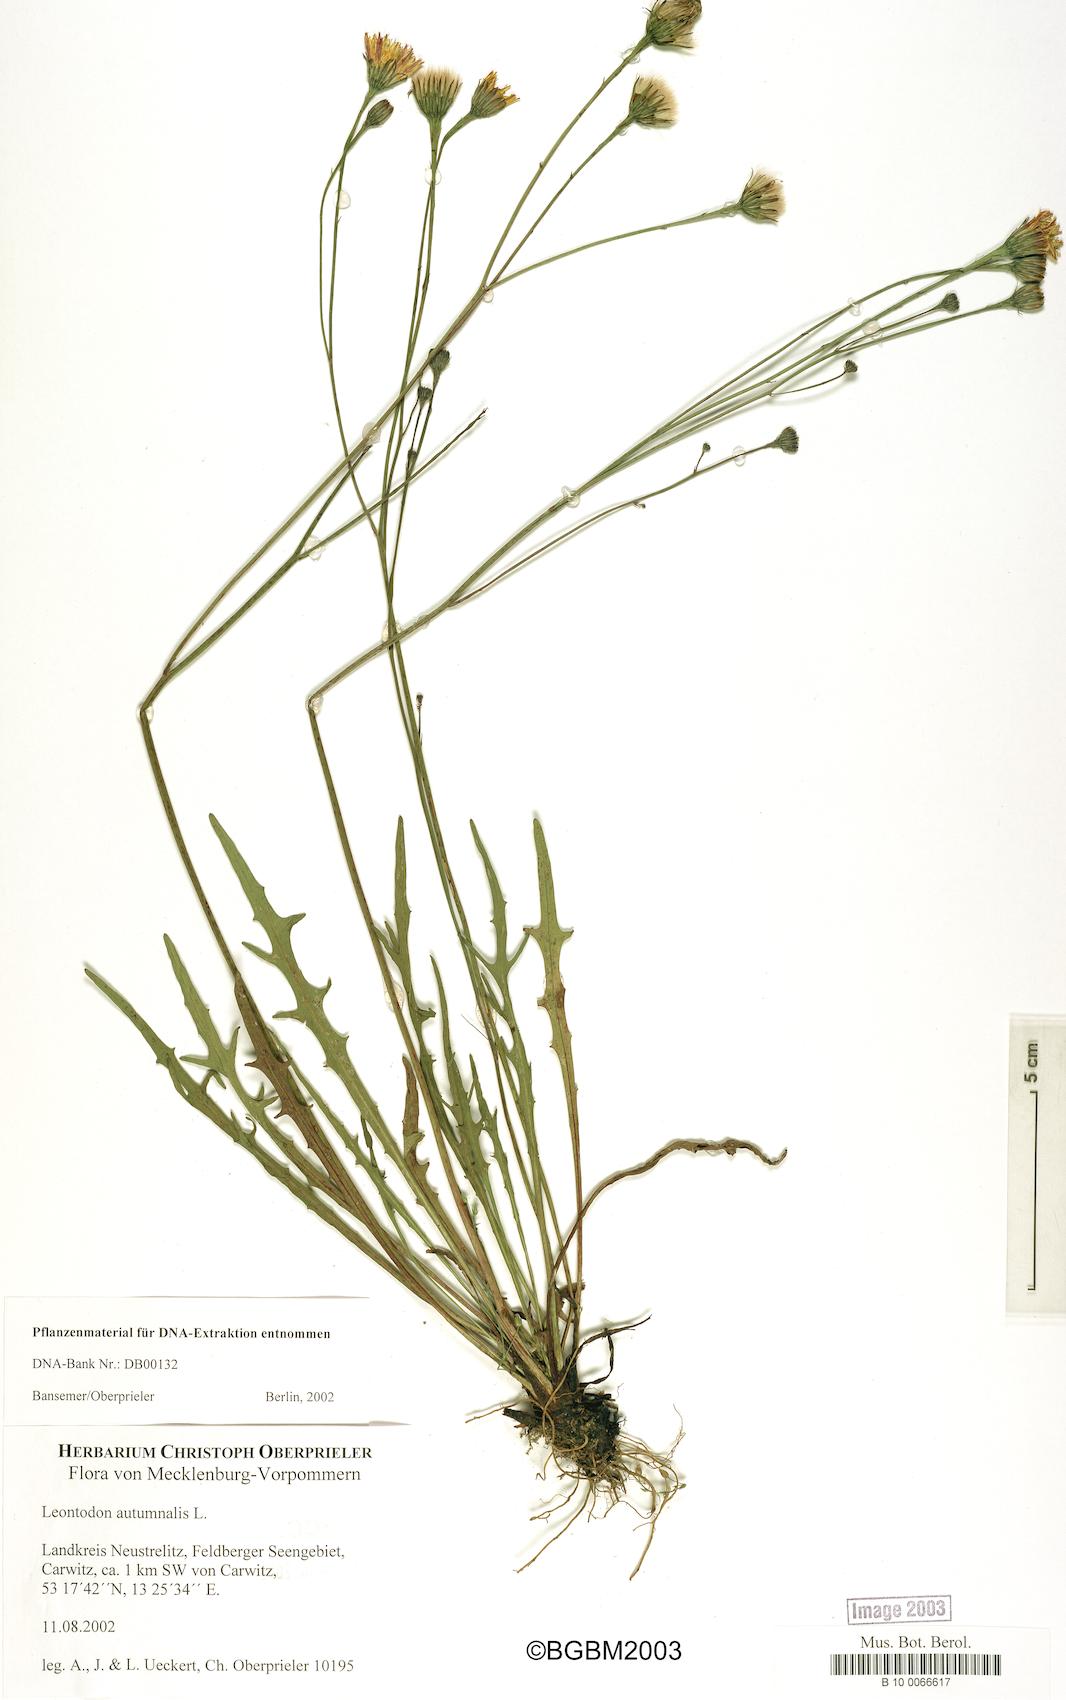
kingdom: Plantae
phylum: Tracheophyta
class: Magnoliopsida
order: Asterales
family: Asteraceae
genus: Scorzoneroides
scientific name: Scorzoneroides autumnalis
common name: Autumn hawkbit
